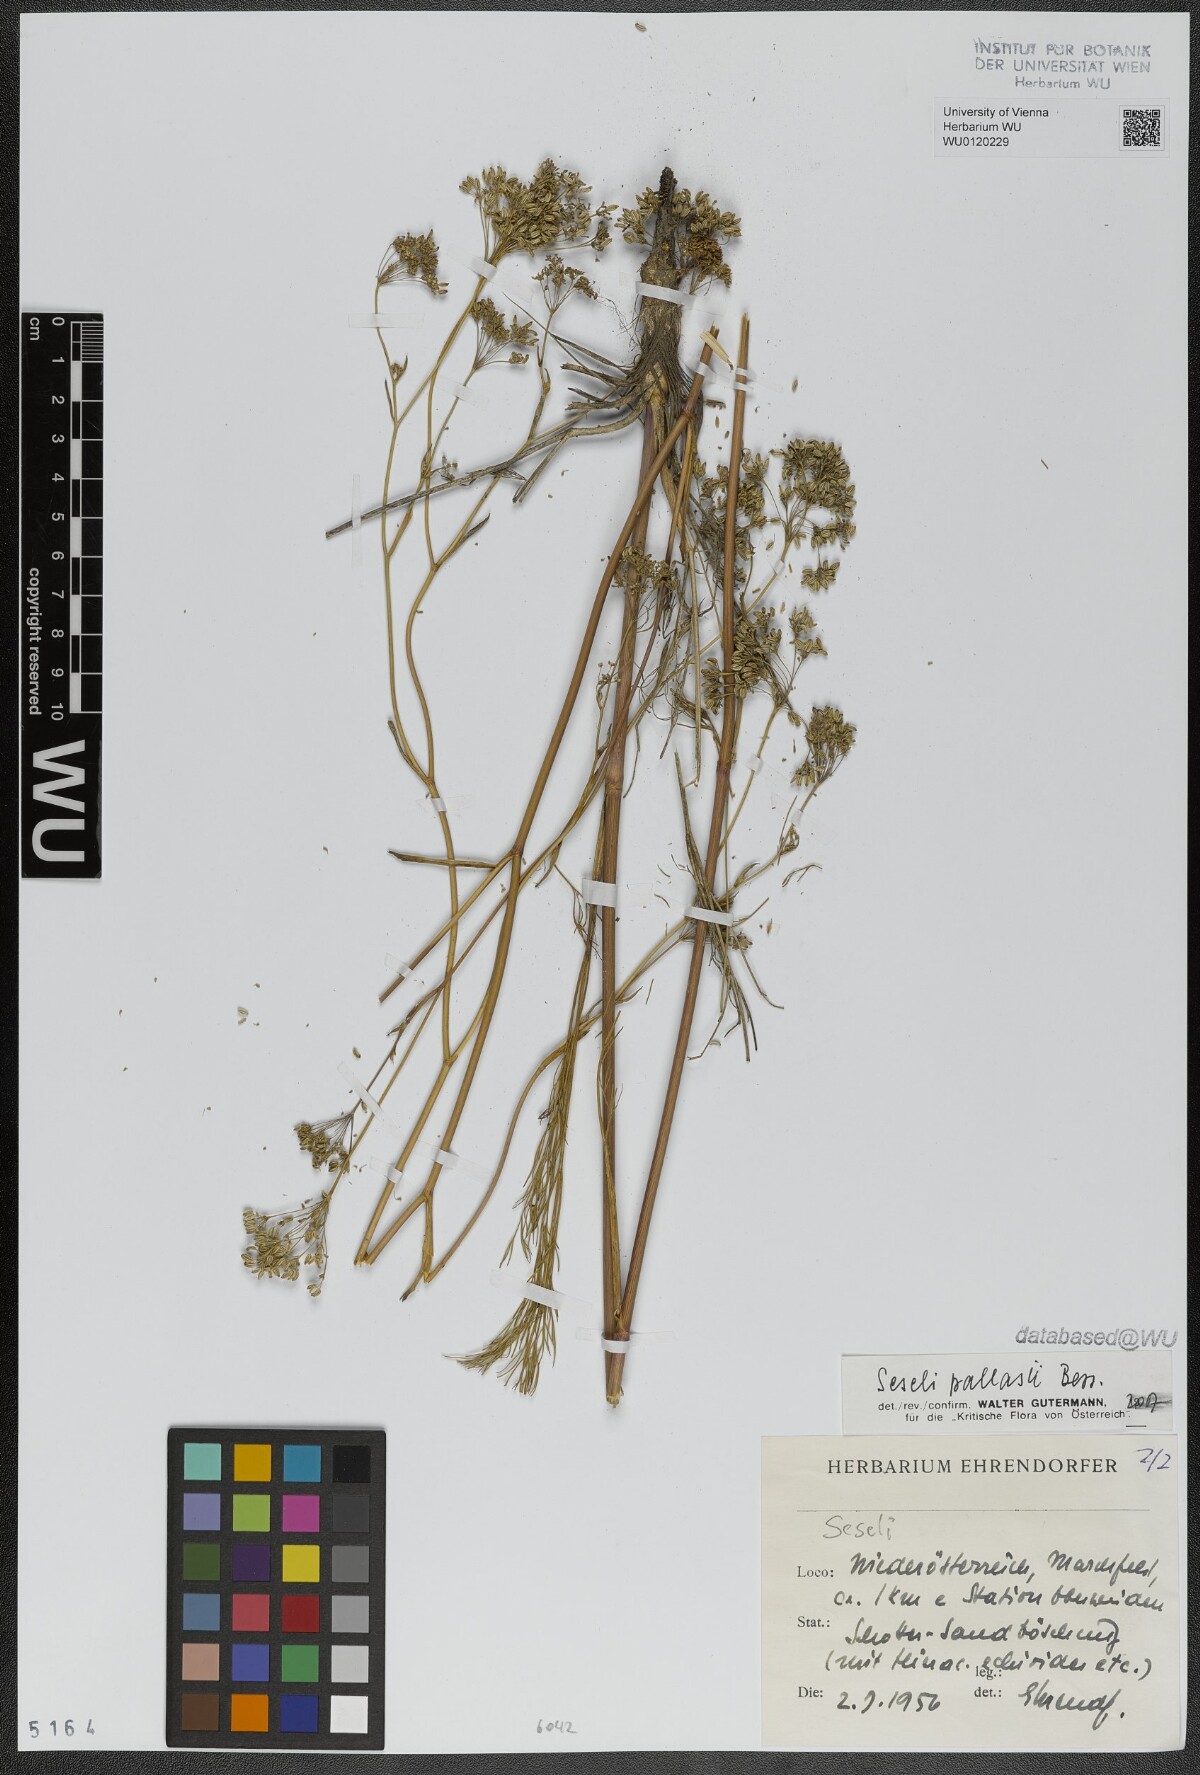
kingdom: Plantae
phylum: Tracheophyta
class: Magnoliopsida
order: Apiales
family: Apiaceae
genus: Seseli
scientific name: Seseli pallasii
